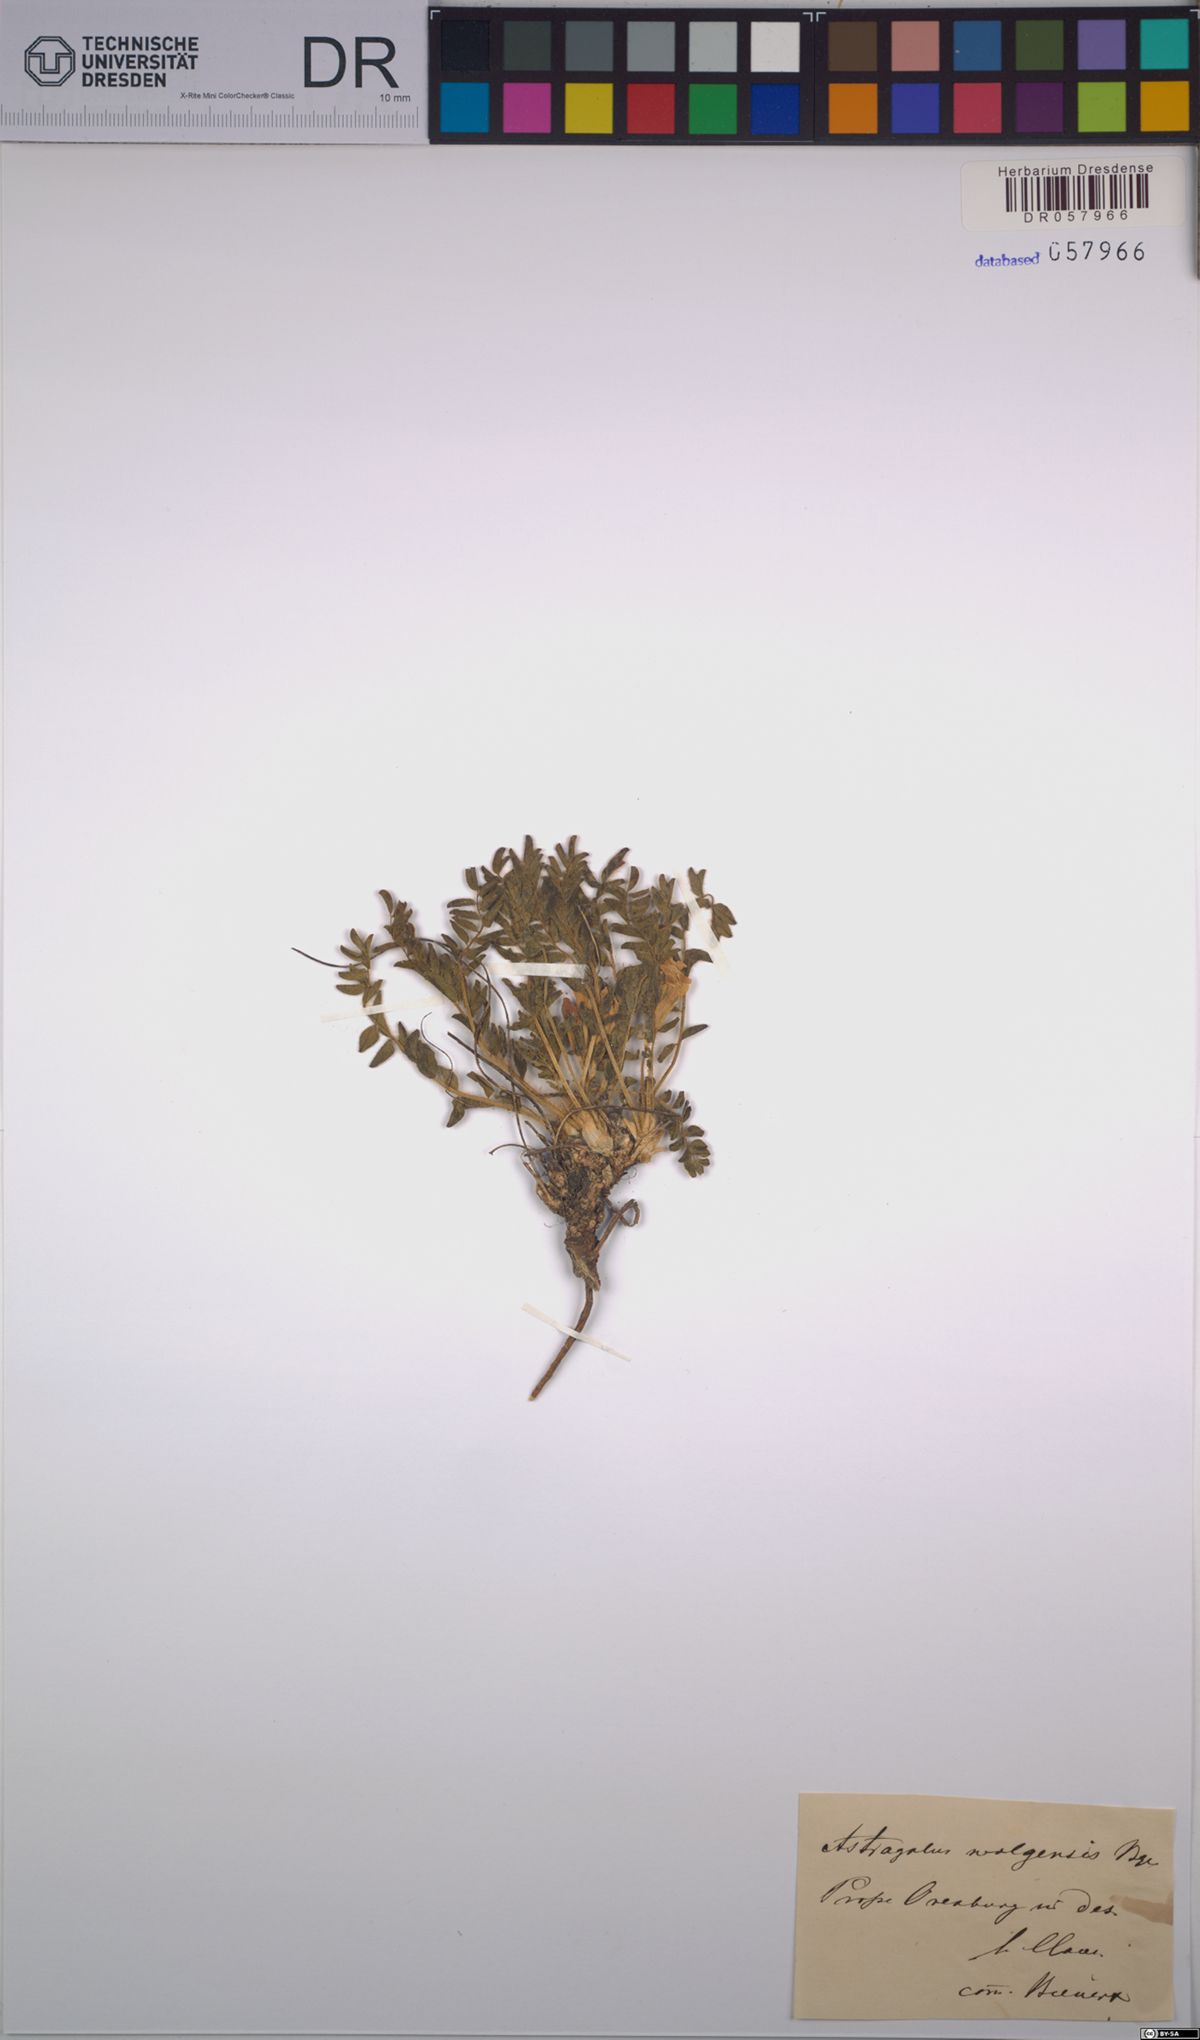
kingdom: Plantae
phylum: Tracheophyta
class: Magnoliopsida
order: Fabales
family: Fabaceae
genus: Astragalus
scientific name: Astragalus wolgensis
